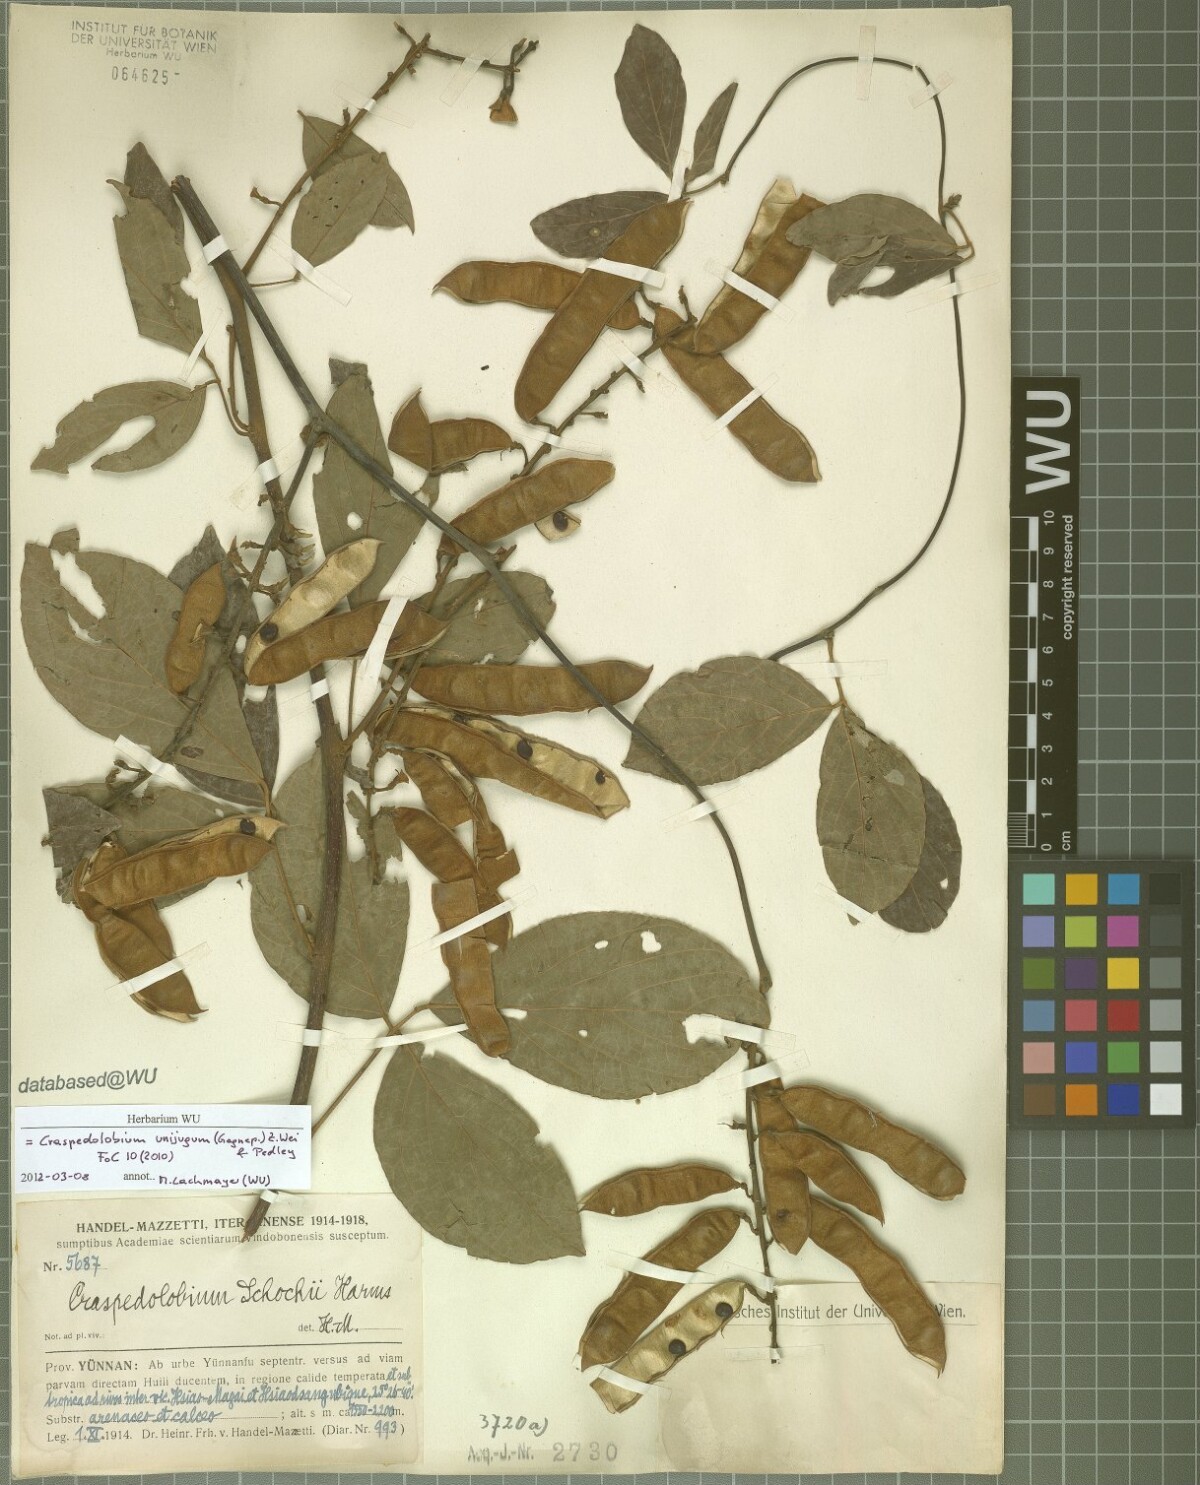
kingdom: Plantae
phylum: Tracheophyta
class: Magnoliopsida
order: Fabales
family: Fabaceae
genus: Craspedolobium
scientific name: Craspedolobium unijugum
